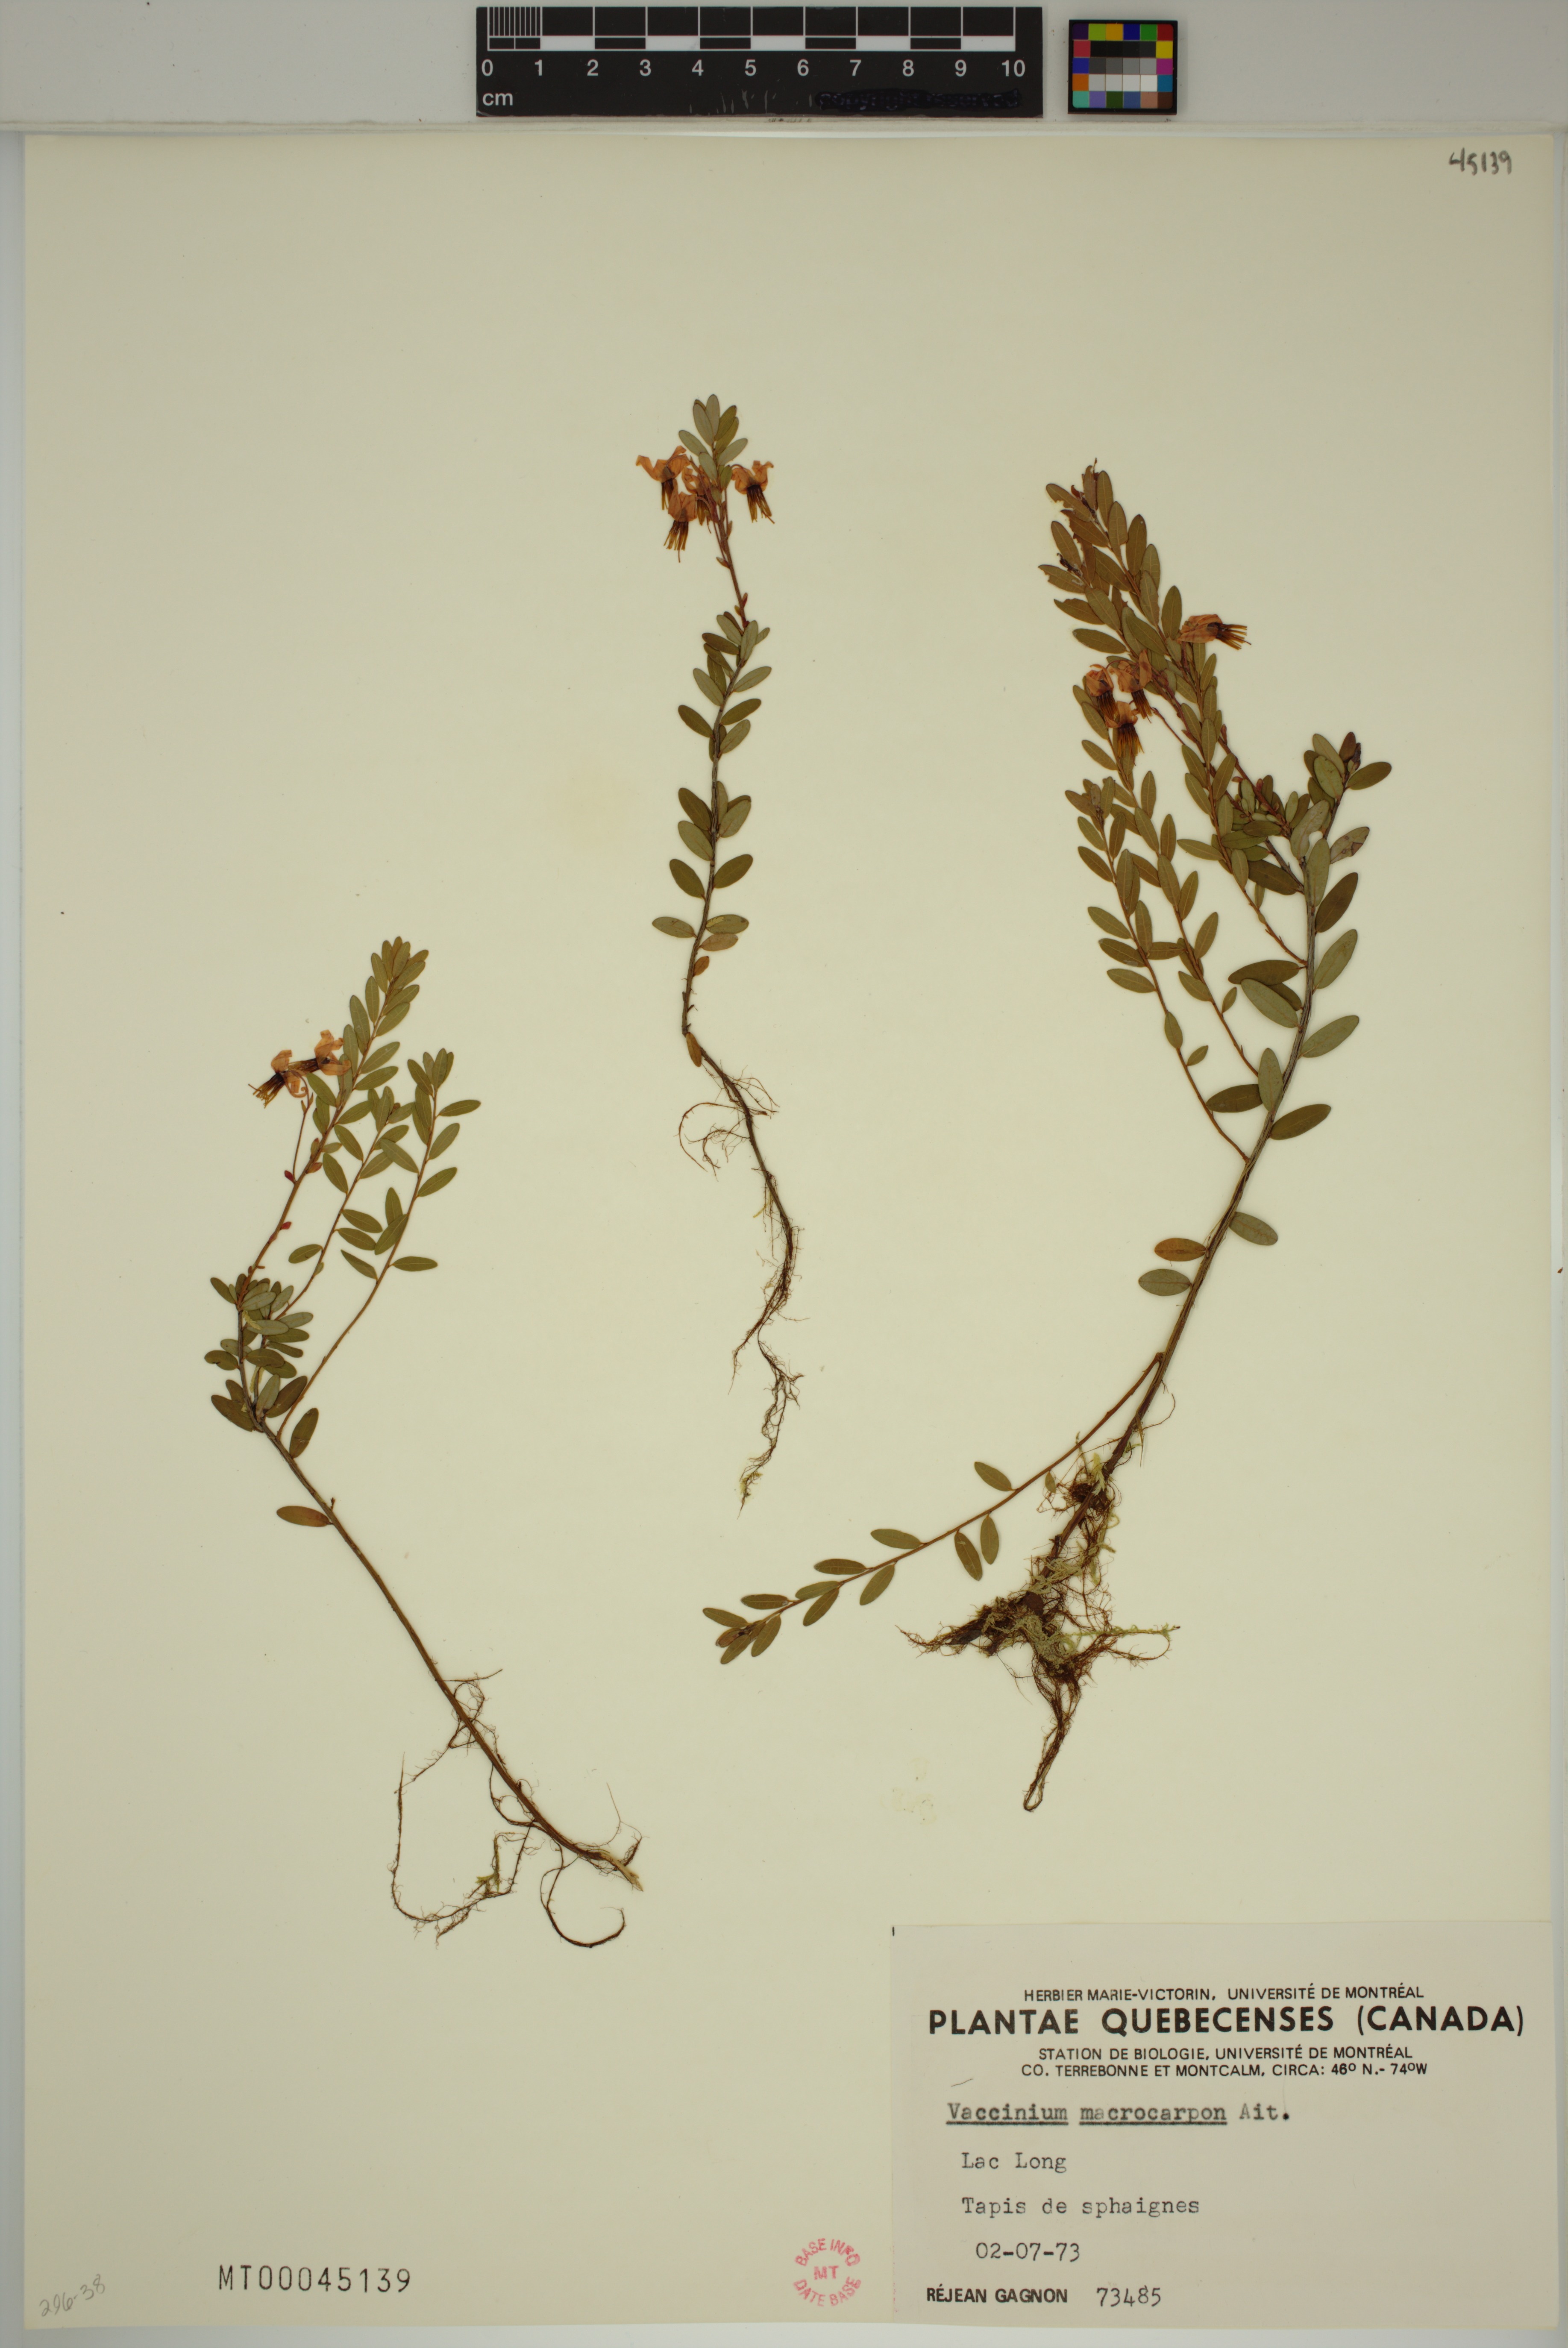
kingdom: Plantae
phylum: Tracheophyta
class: Magnoliopsida
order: Ericales
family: Ericaceae
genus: Vaccinium
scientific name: Vaccinium macrocarpon
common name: American cranberry
